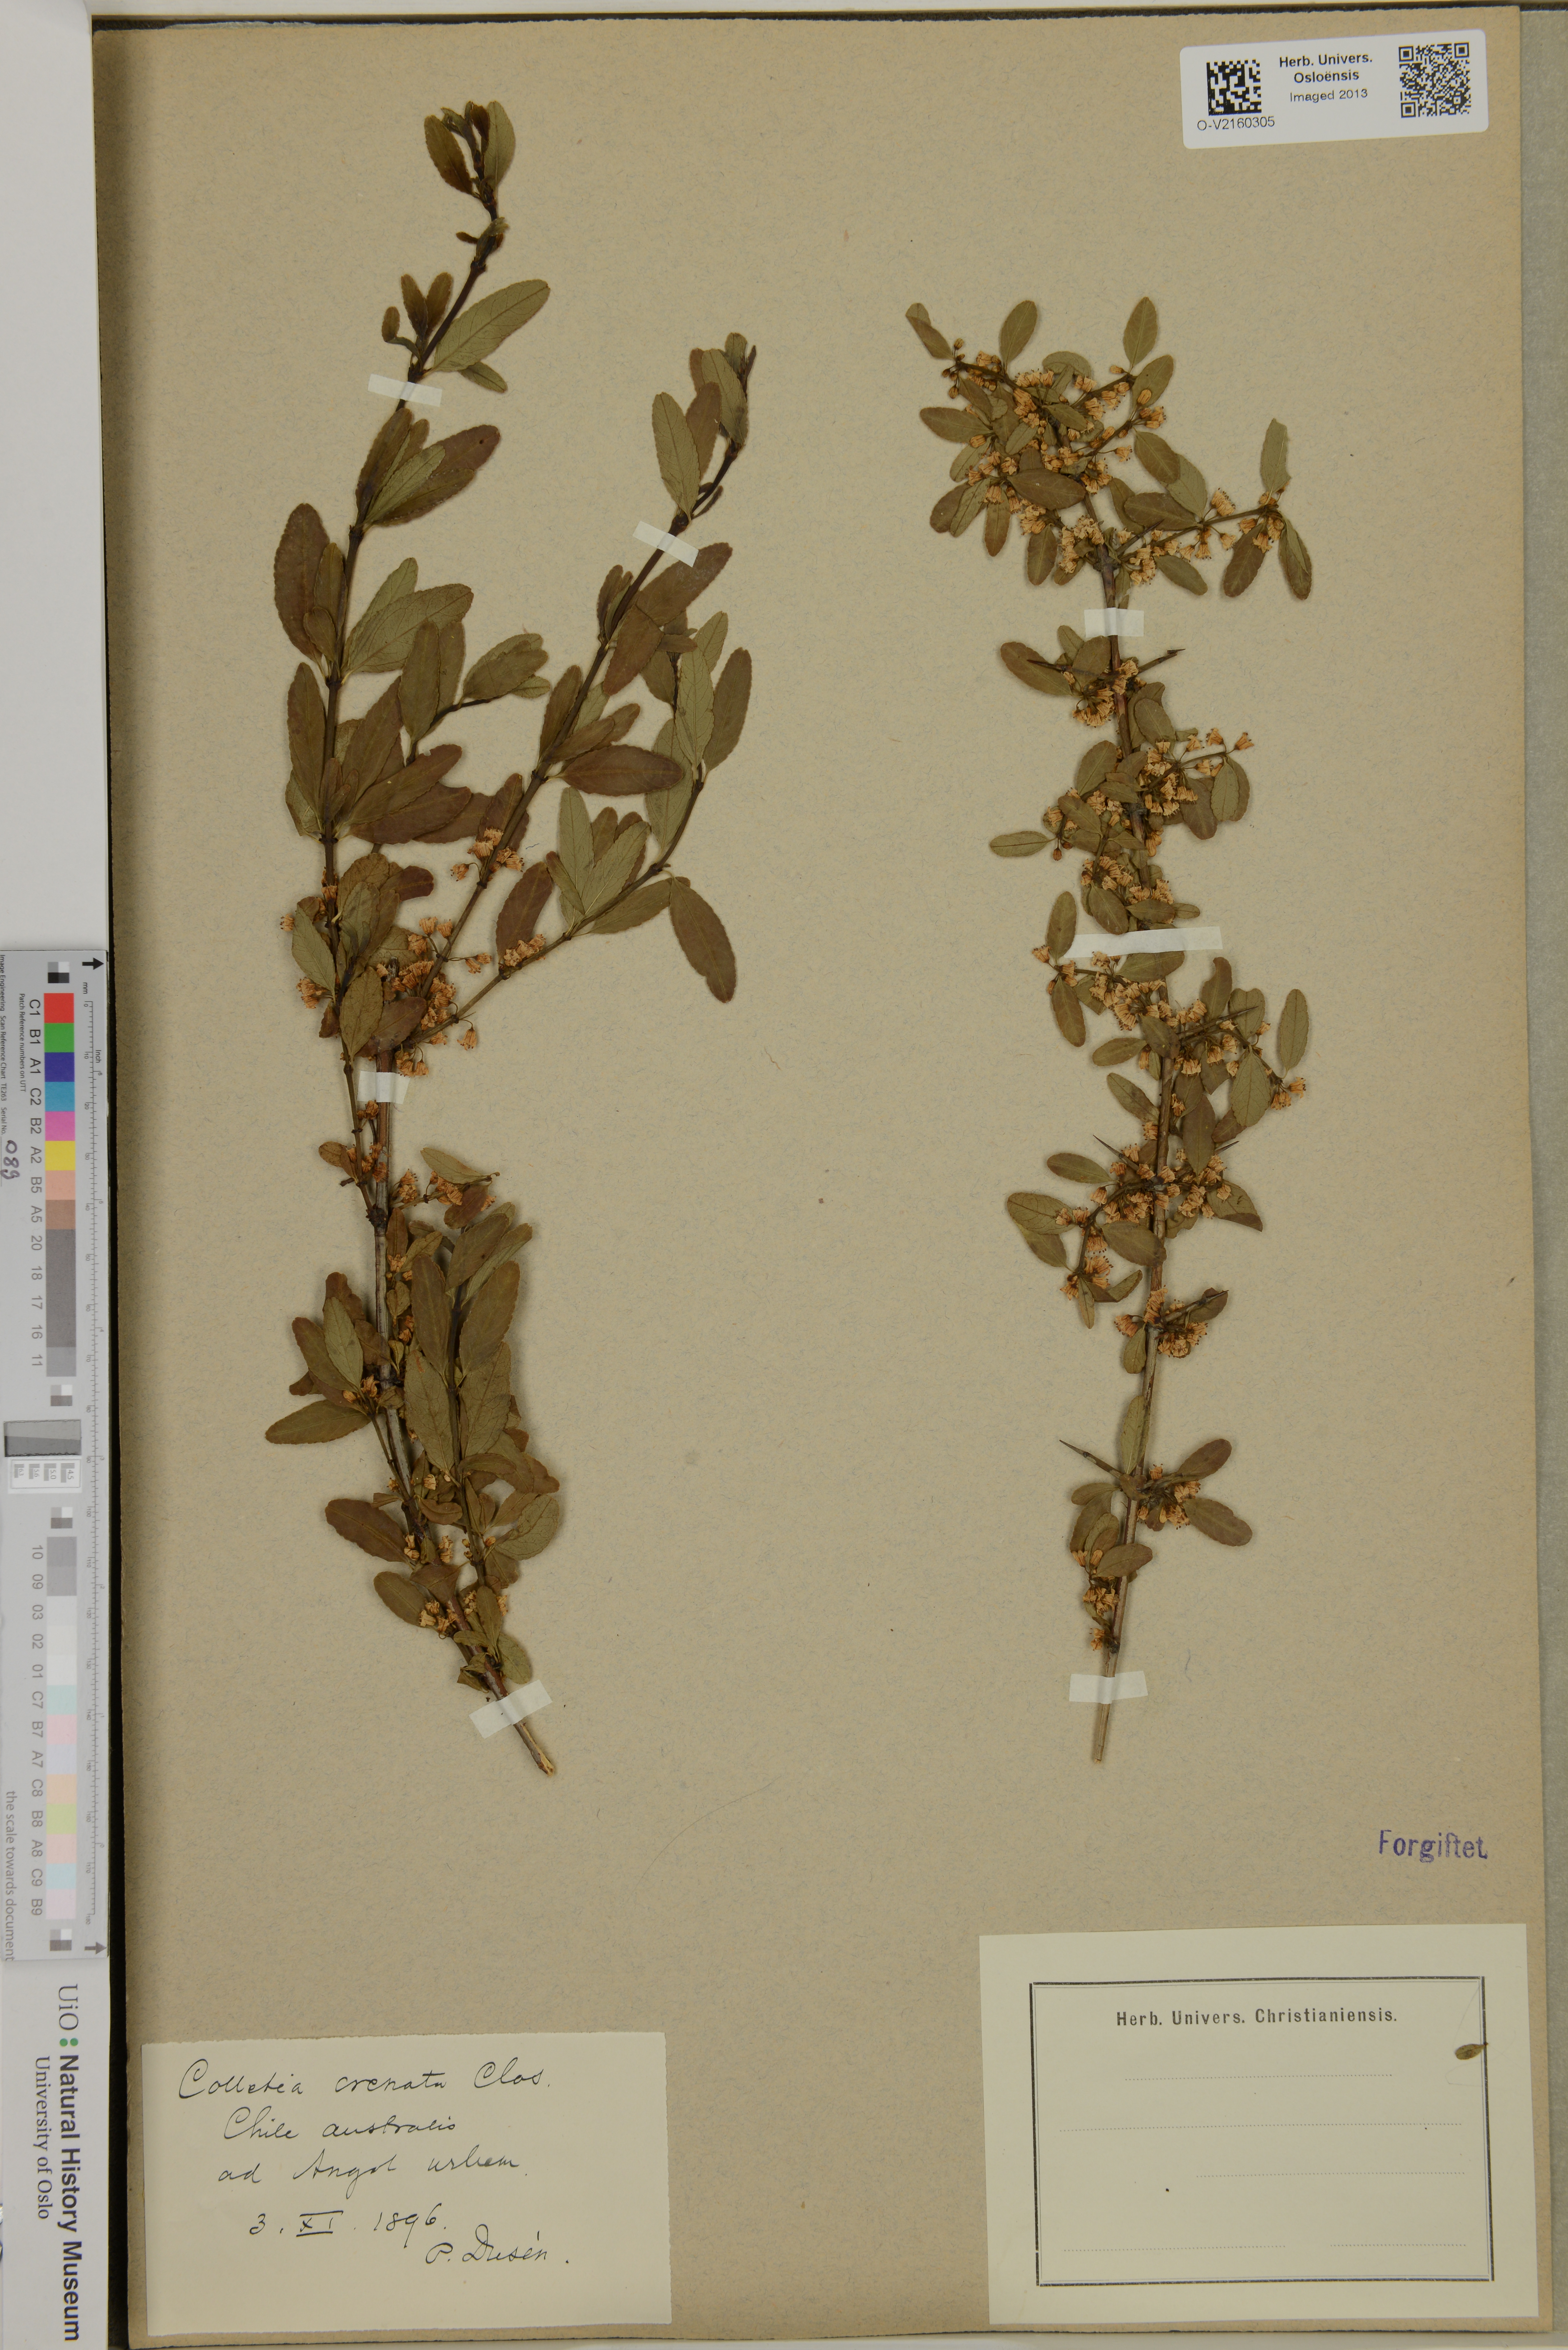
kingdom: Plantae
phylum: Tracheophyta
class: Magnoliopsida
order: Rosales
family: Rhamnaceae
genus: Discaria
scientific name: Discaria chacaye
